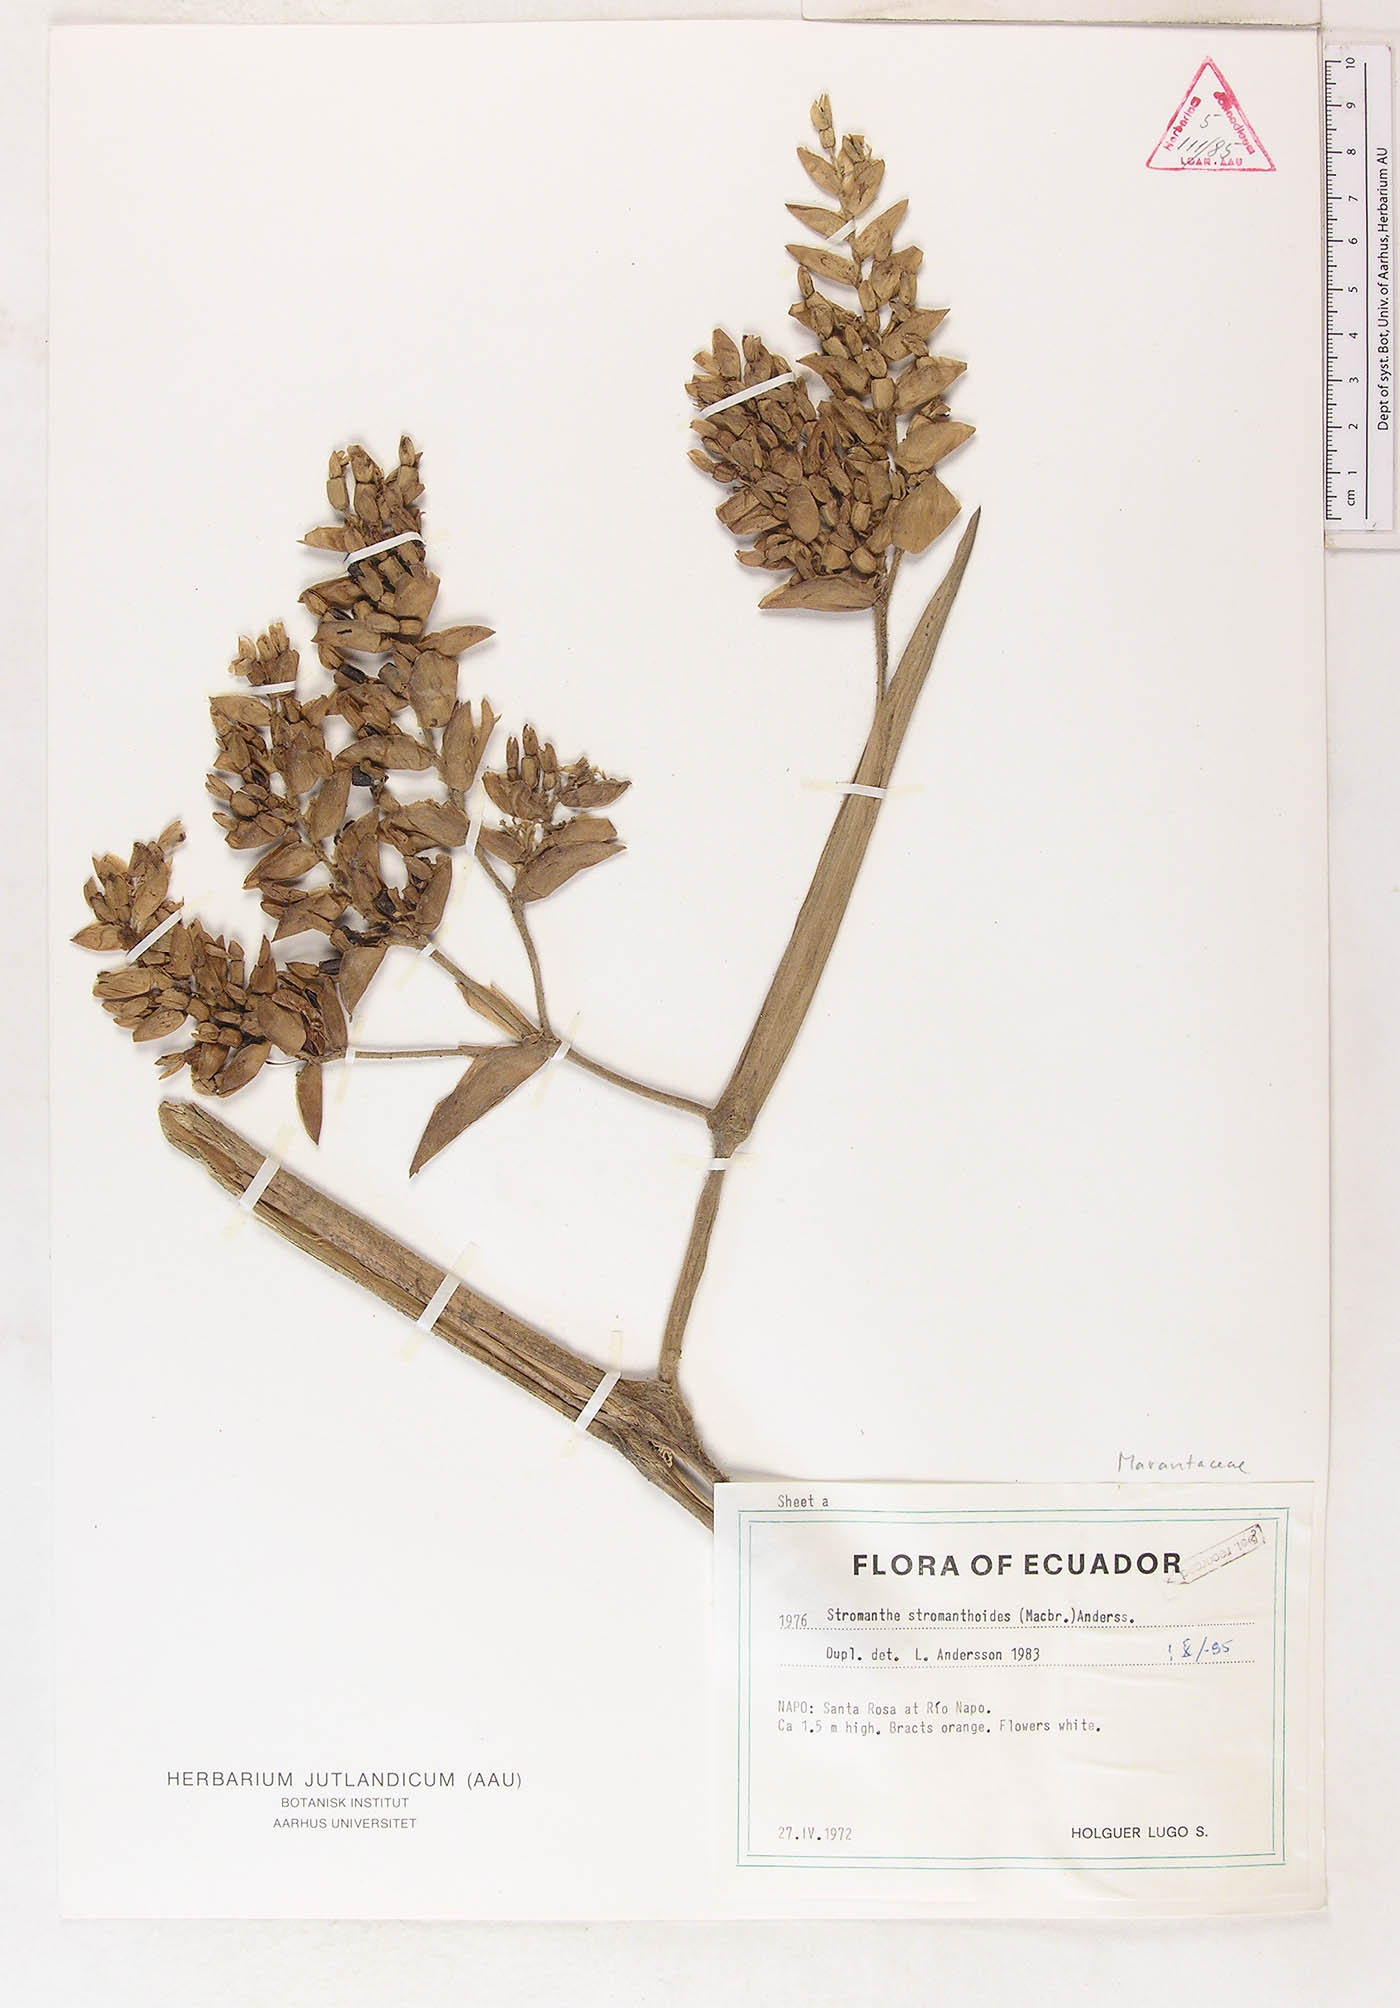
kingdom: Plantae
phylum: Tracheophyta
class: Liliopsida
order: Zingiberales
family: Marantaceae
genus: Stromanthe
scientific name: Stromanthe stromanthoides
